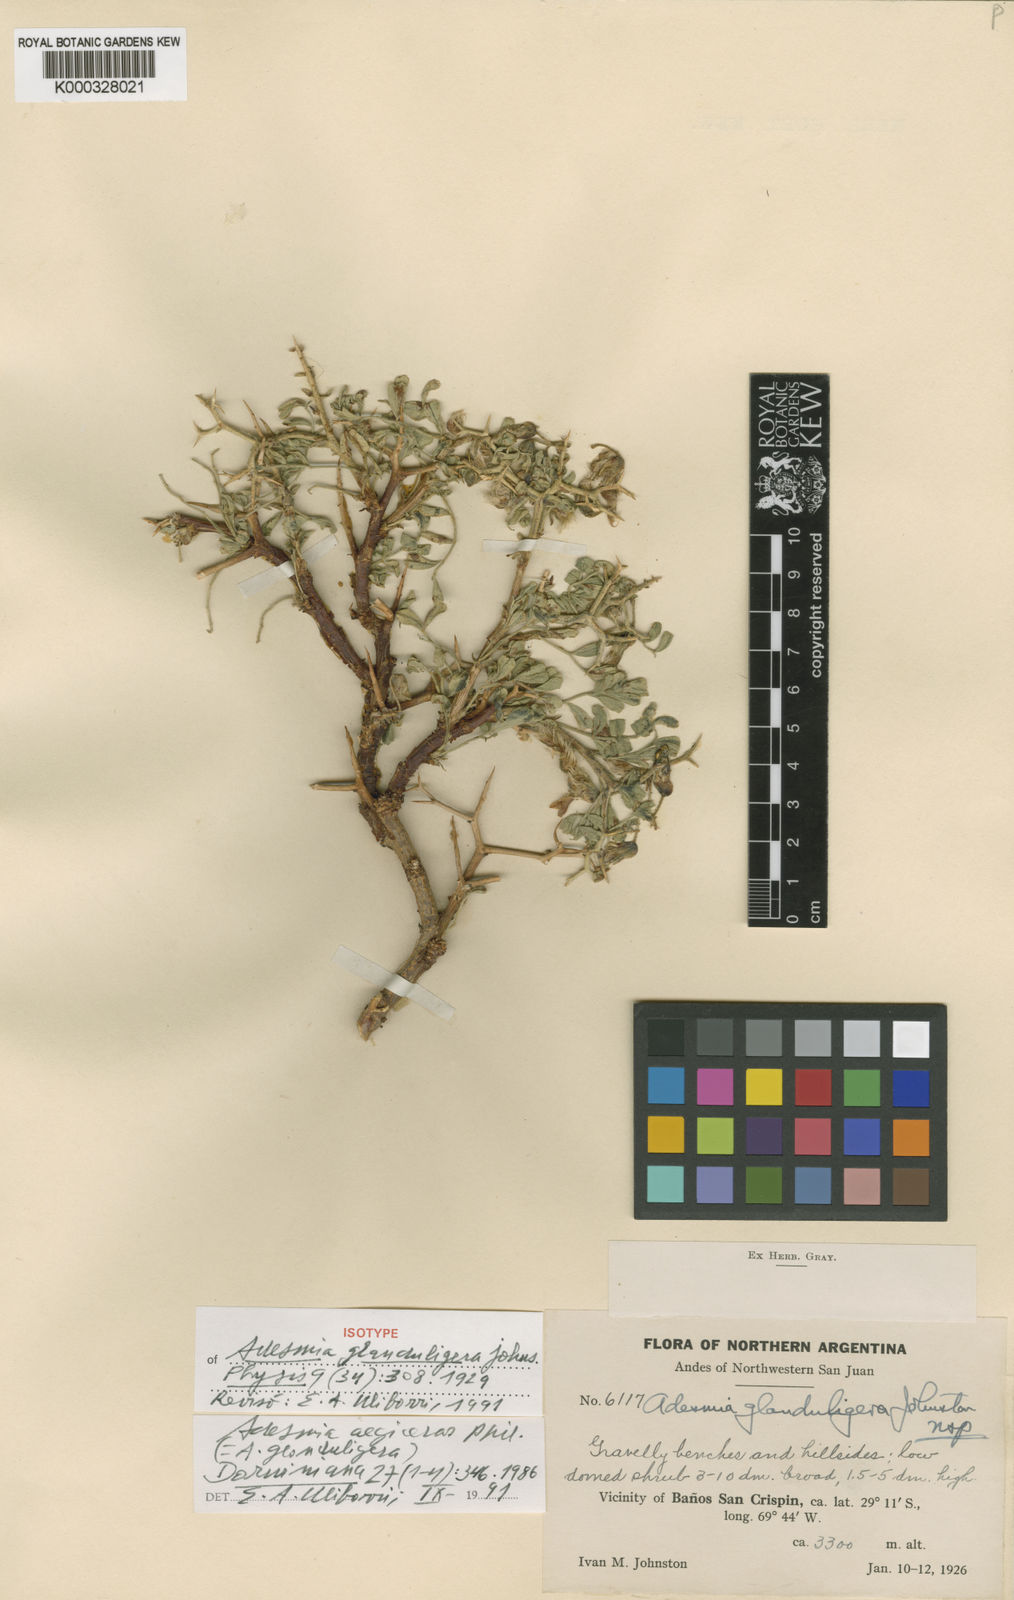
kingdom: Plantae
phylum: Tracheophyta
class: Magnoliopsida
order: Fabales
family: Fabaceae
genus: Adesmia
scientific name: Adesmia aegiceras
